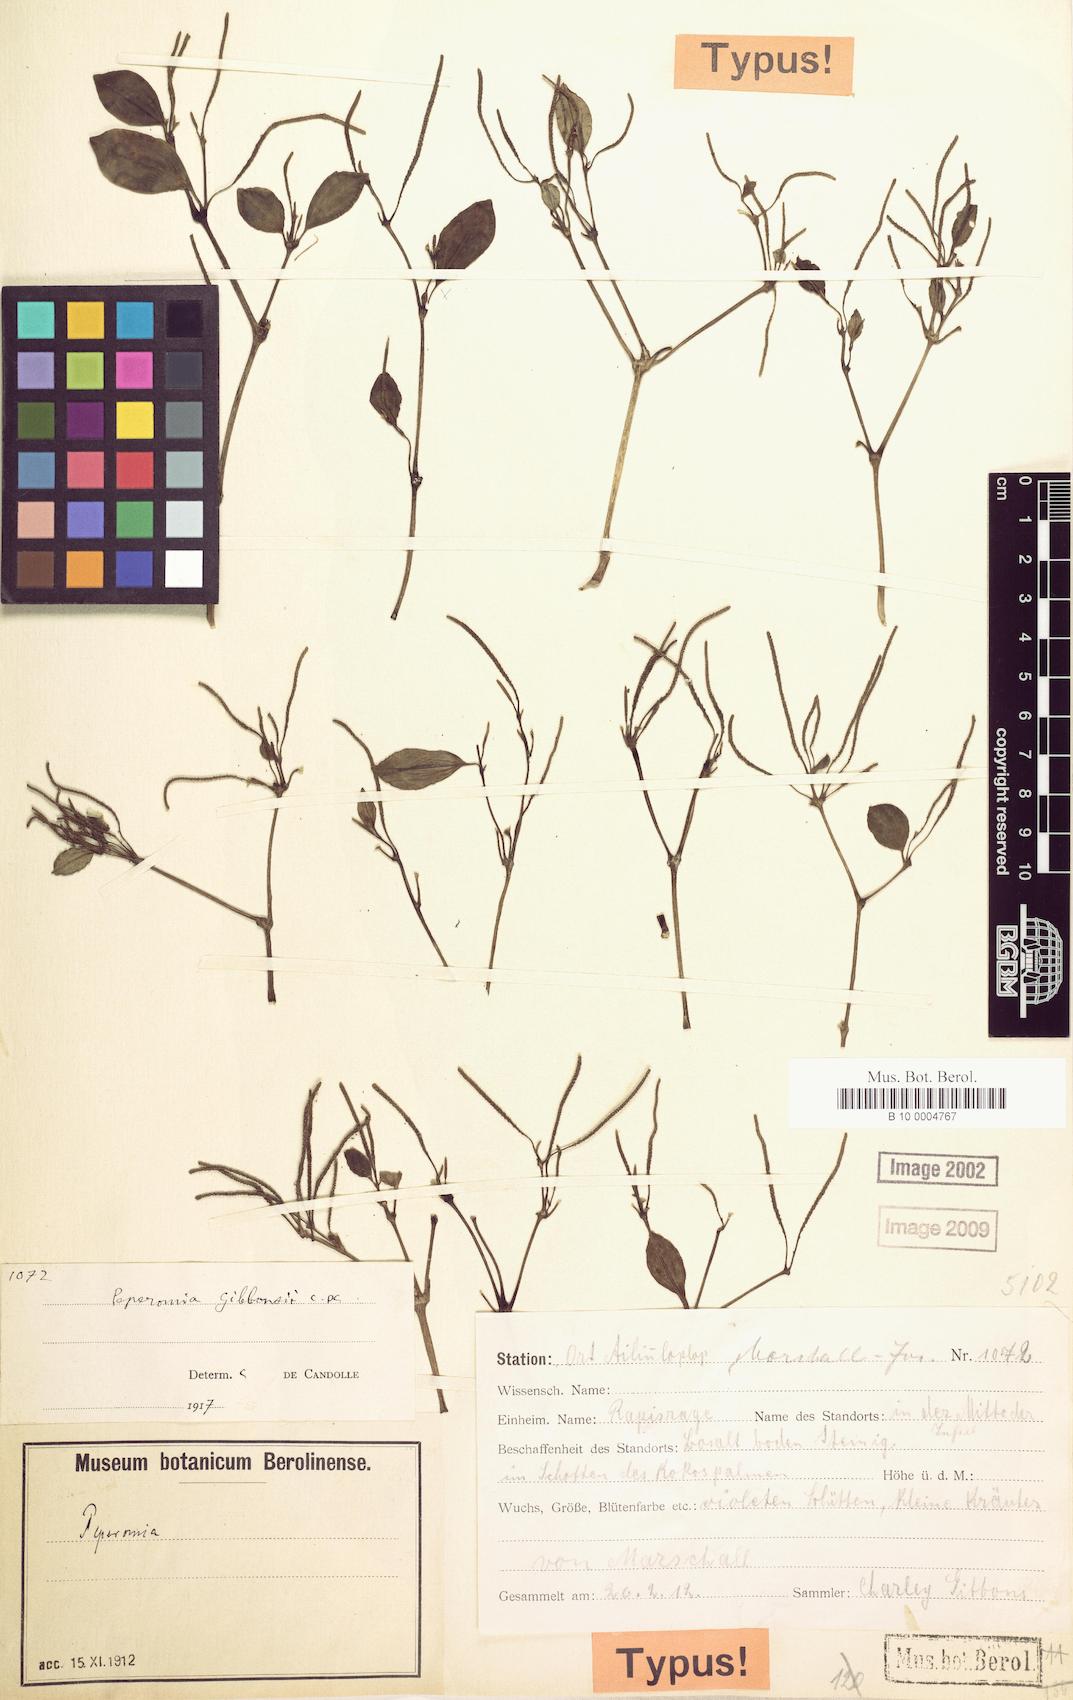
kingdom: Plantae
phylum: Tracheophyta
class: Magnoliopsida
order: Piperales
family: Piperaceae
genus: Peperomia
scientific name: Peperomia ponapensis
